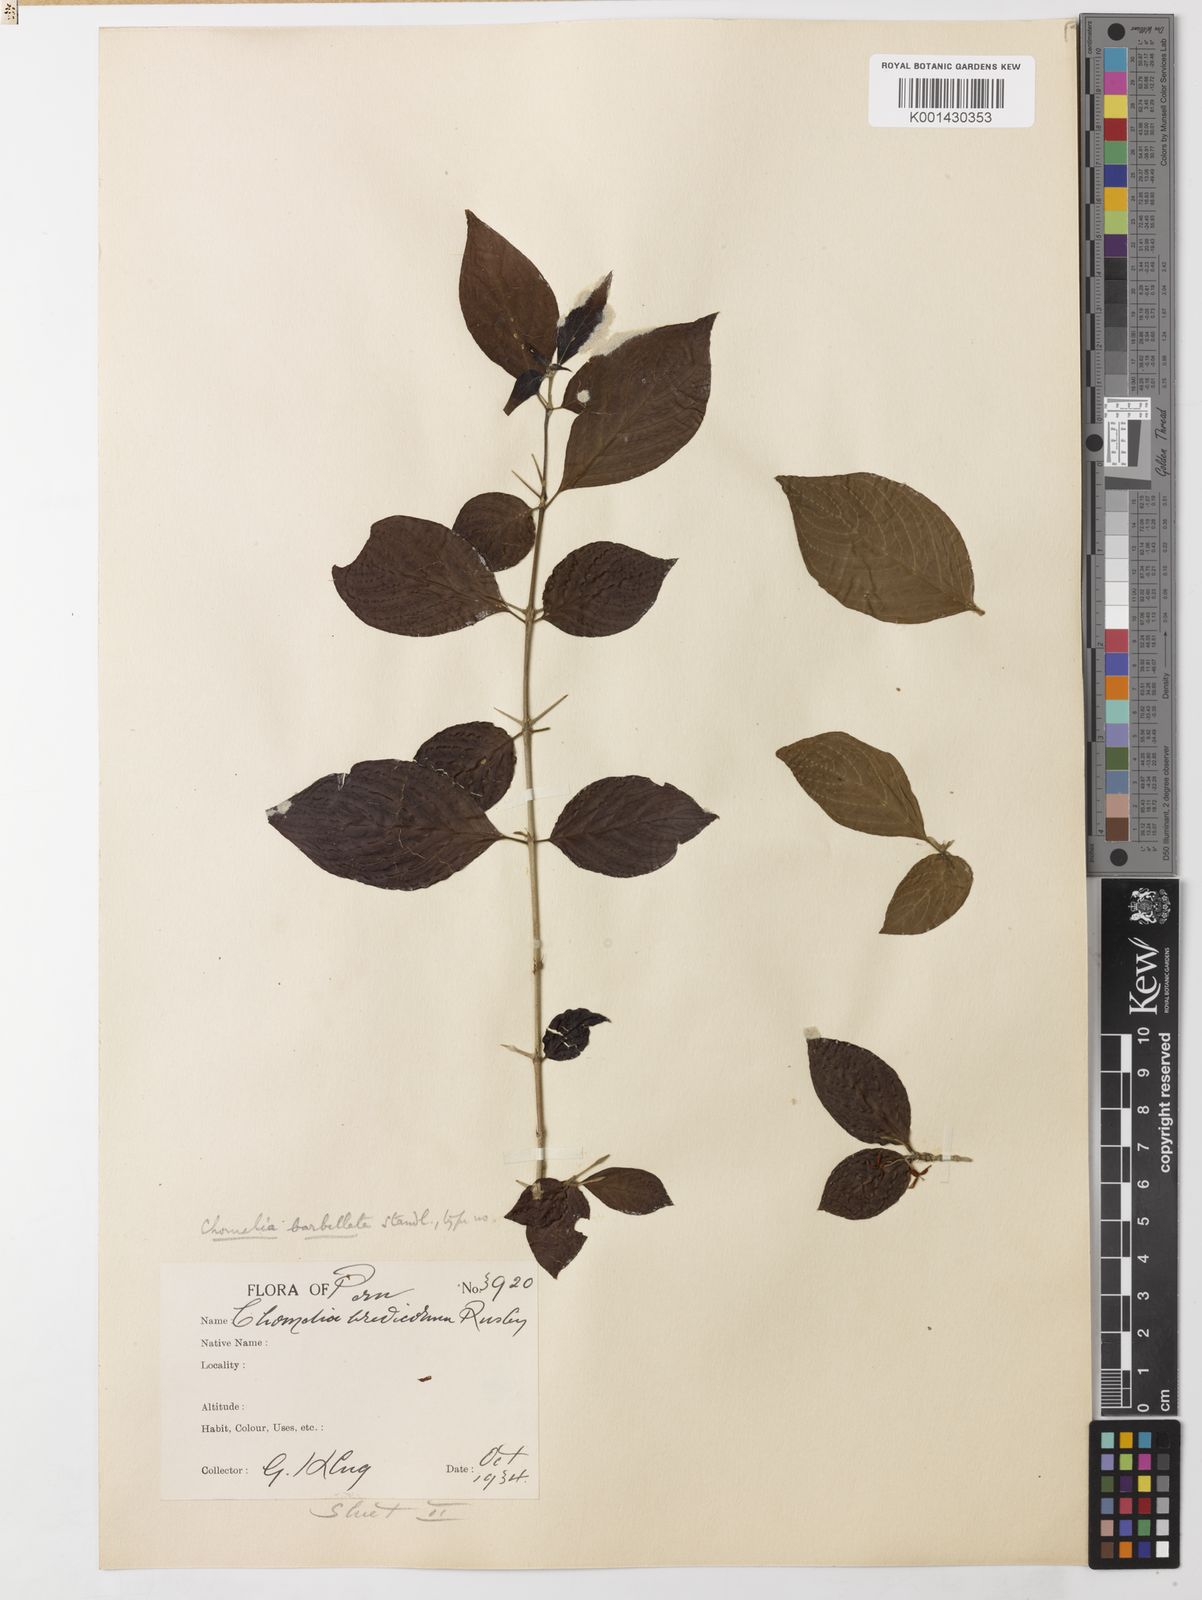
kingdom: Plantae
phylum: Tracheophyta
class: Magnoliopsida
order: Gentianales
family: Rubiaceae
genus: Chomelia
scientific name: Chomelia tenuiflora
